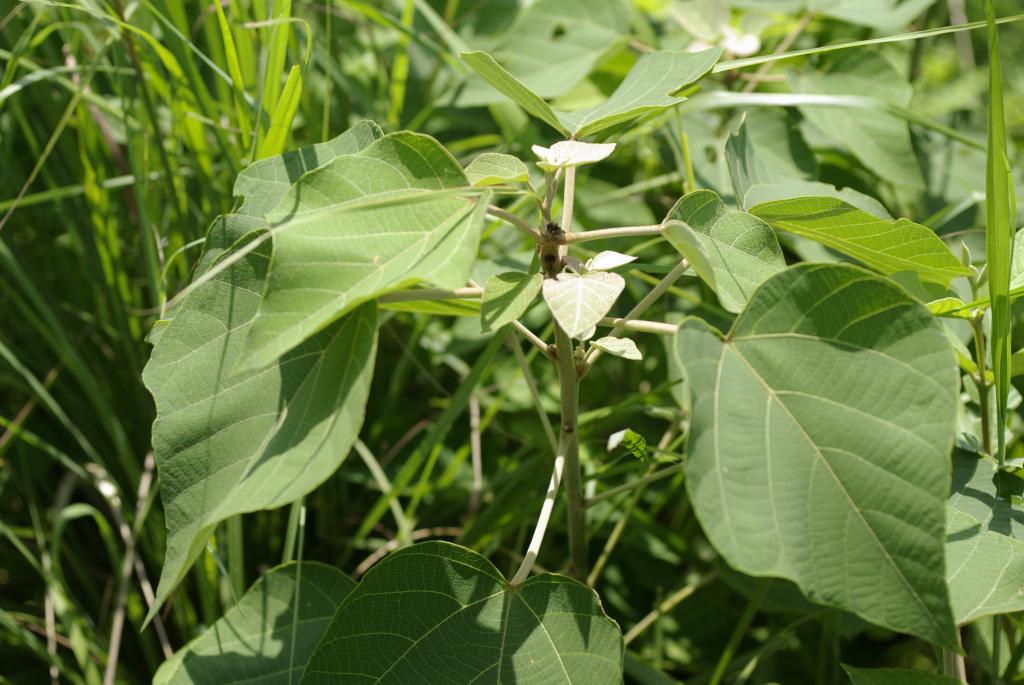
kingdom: Plantae
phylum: Tracheophyta
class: Magnoliopsida
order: Malpighiales
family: Euphorbiaceae
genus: Mallotus
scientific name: Mallotus paniculatus
